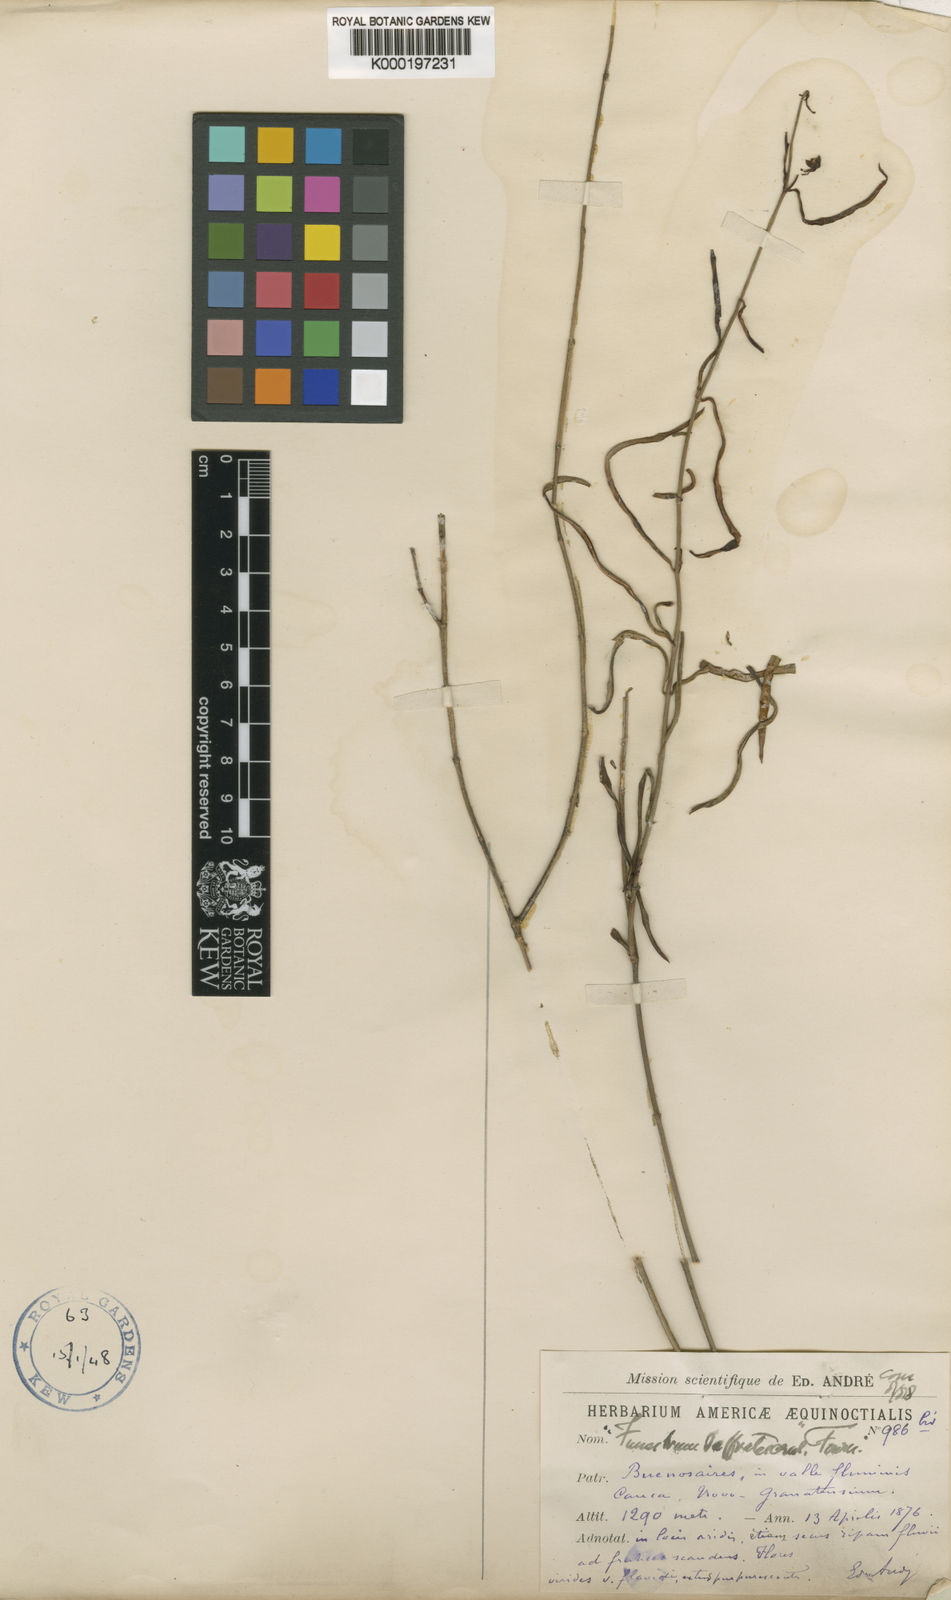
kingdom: Plantae
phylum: Tracheophyta
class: Magnoliopsida
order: Gentianales
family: Apocynaceae
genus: Ditassa
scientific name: Ditassa
